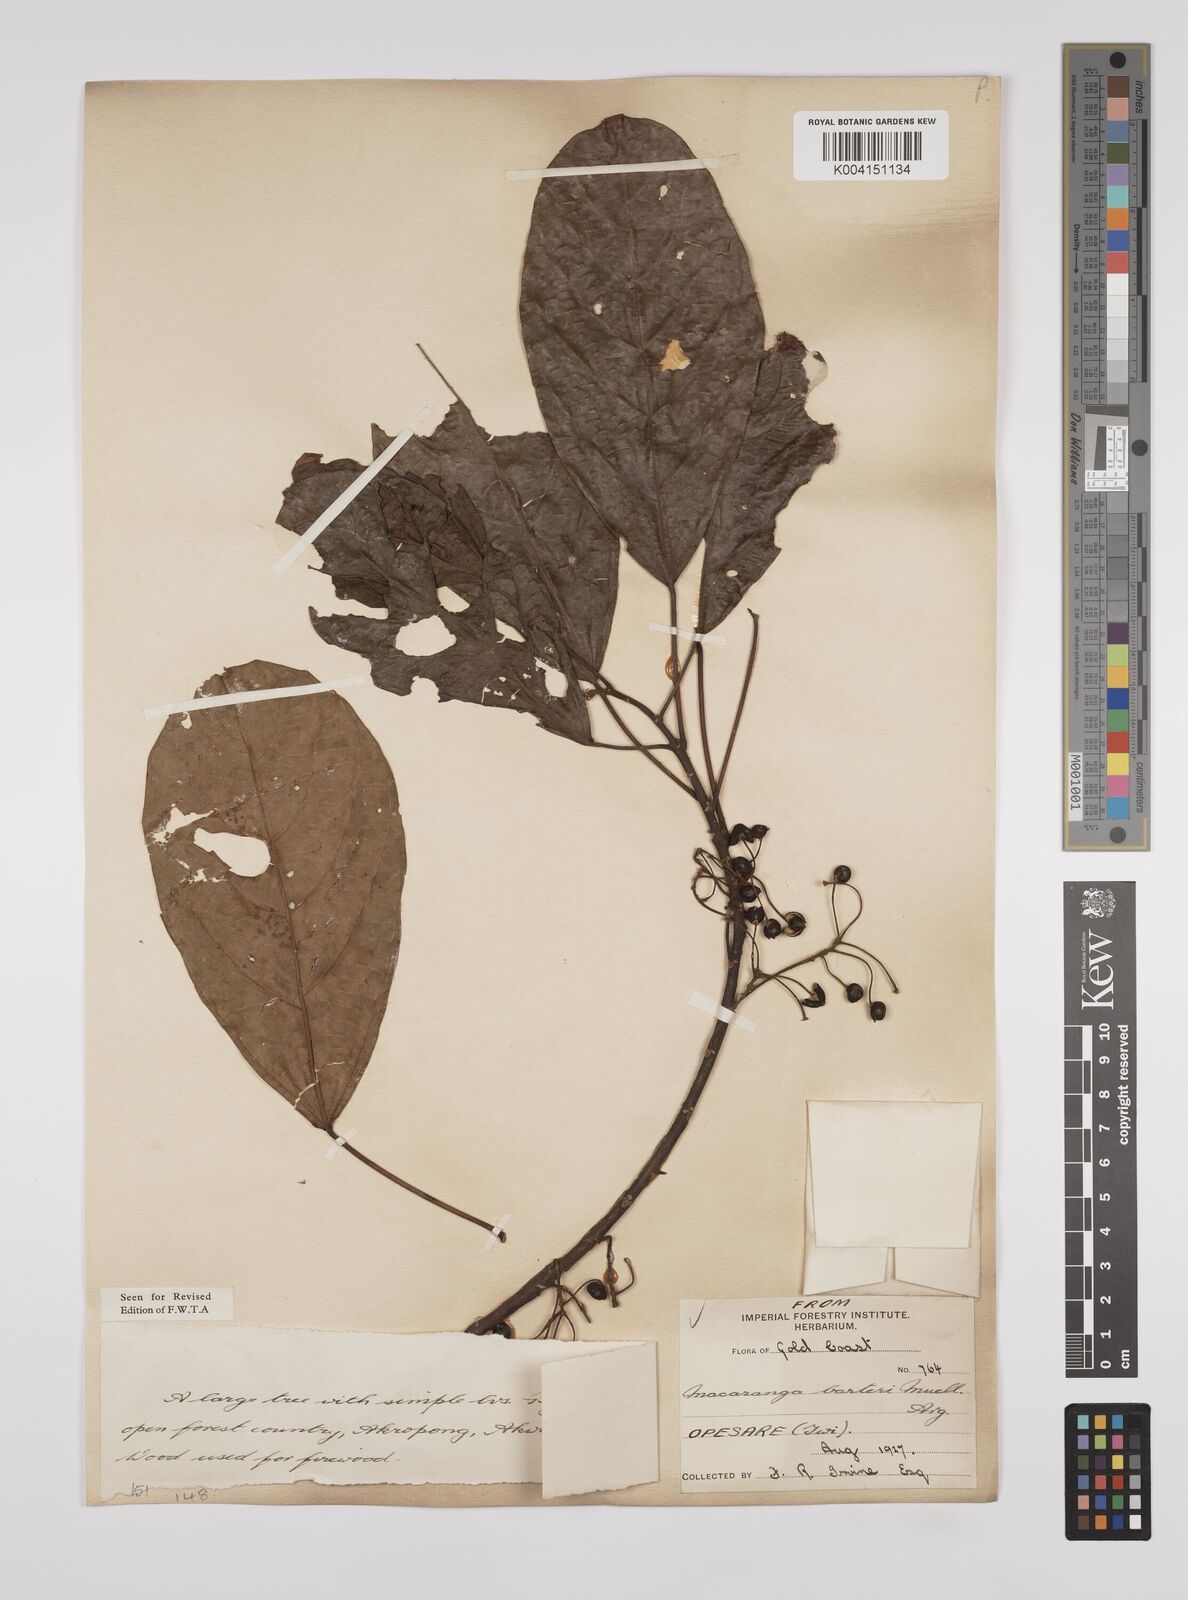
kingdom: Plantae
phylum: Tracheophyta
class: Magnoliopsida
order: Malpighiales
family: Euphorbiaceae
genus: Macaranga
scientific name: Macaranga barteri
